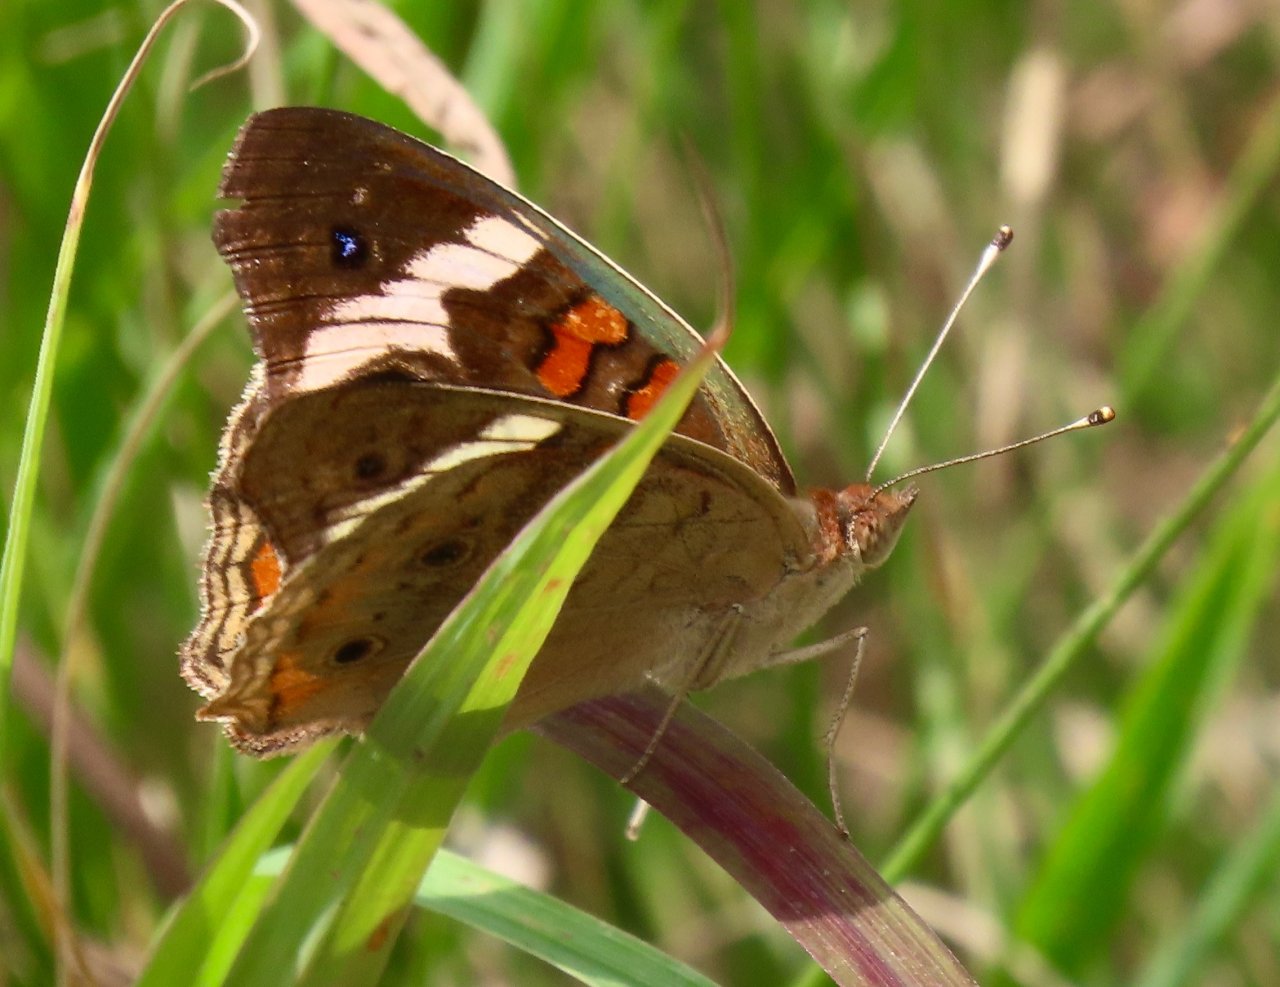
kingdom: Animalia
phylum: Arthropoda
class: Insecta
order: Lepidoptera
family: Nymphalidae
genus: Junonia
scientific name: Junonia coenia
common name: Common Buckeye
